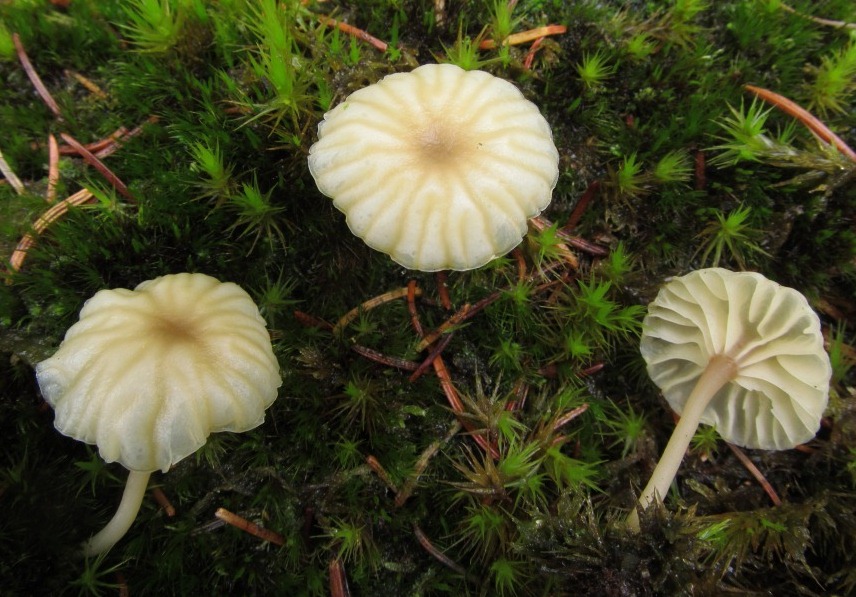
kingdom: Fungi
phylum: Basidiomycota
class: Agaricomycetes
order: Agaricales
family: Hygrophoraceae
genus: Lichenomphalia
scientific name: Lichenomphalia umbellifera
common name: tørve-lavhat
